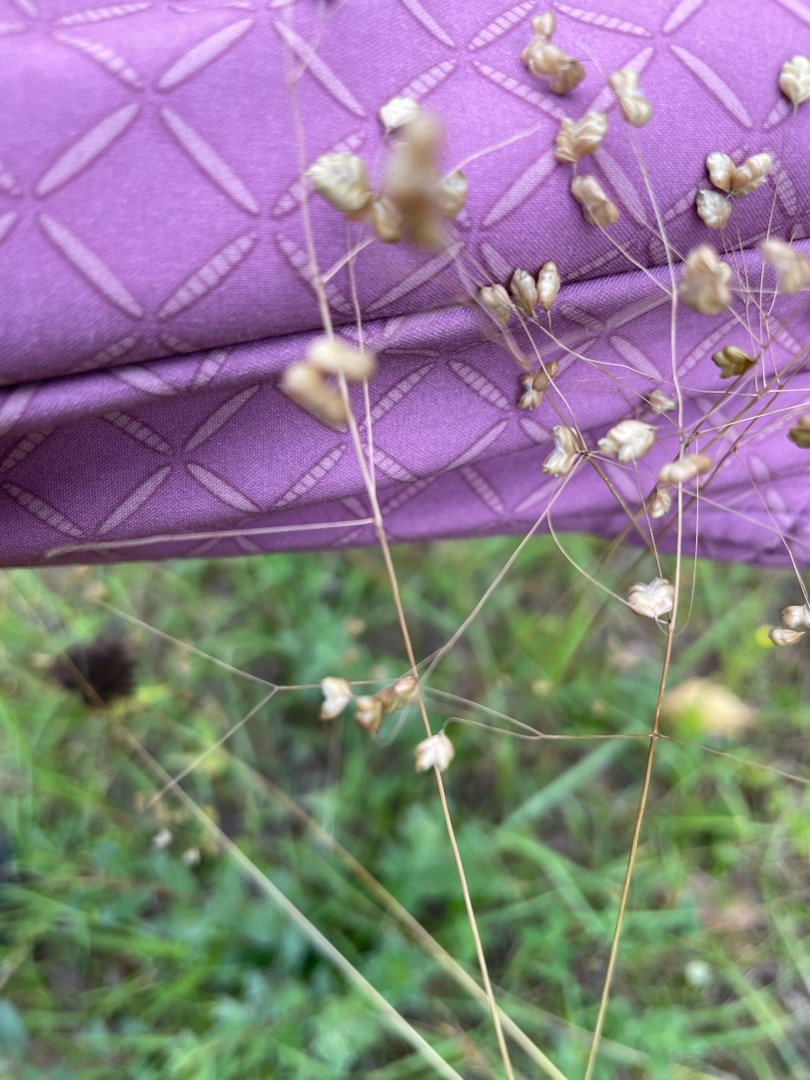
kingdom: Plantae
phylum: Tracheophyta
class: Liliopsida
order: Poales
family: Poaceae
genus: Briza
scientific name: Briza media
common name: Hjertegræs
